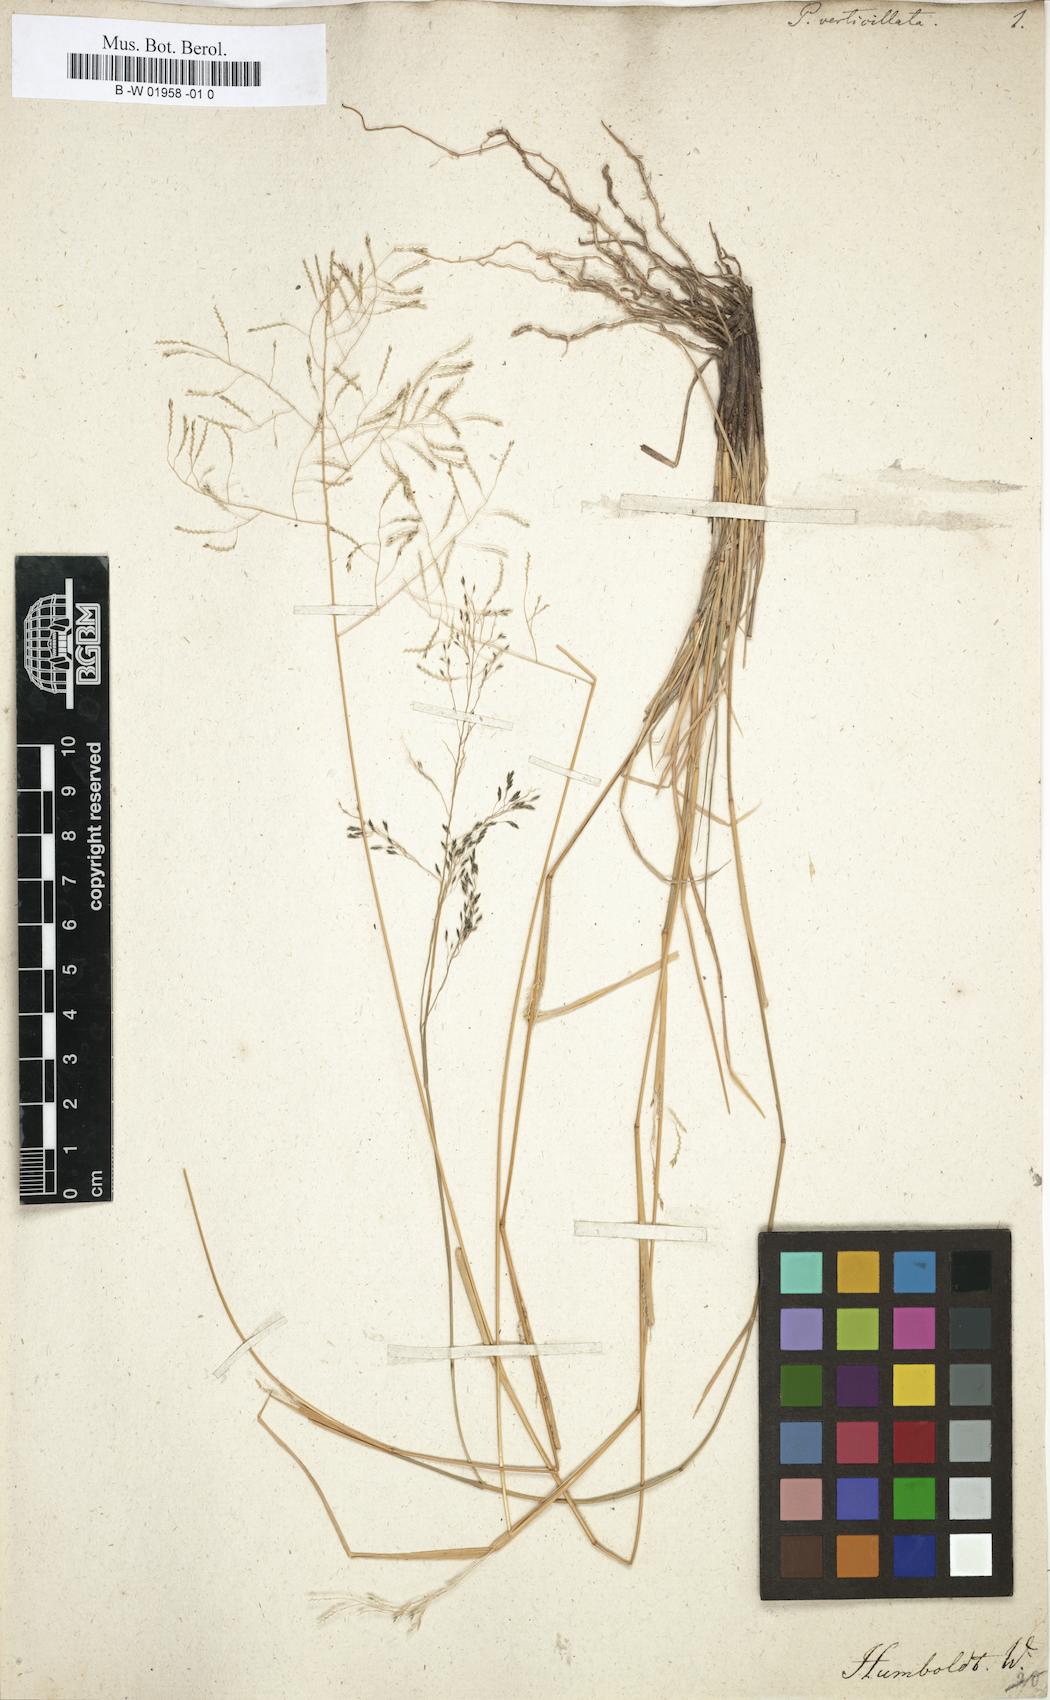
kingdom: Plantae
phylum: Tracheophyta
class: Liliopsida
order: Poales
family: Poaceae
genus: Eragrostis
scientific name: Eragrostis pilosa
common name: Indian lovegrass
